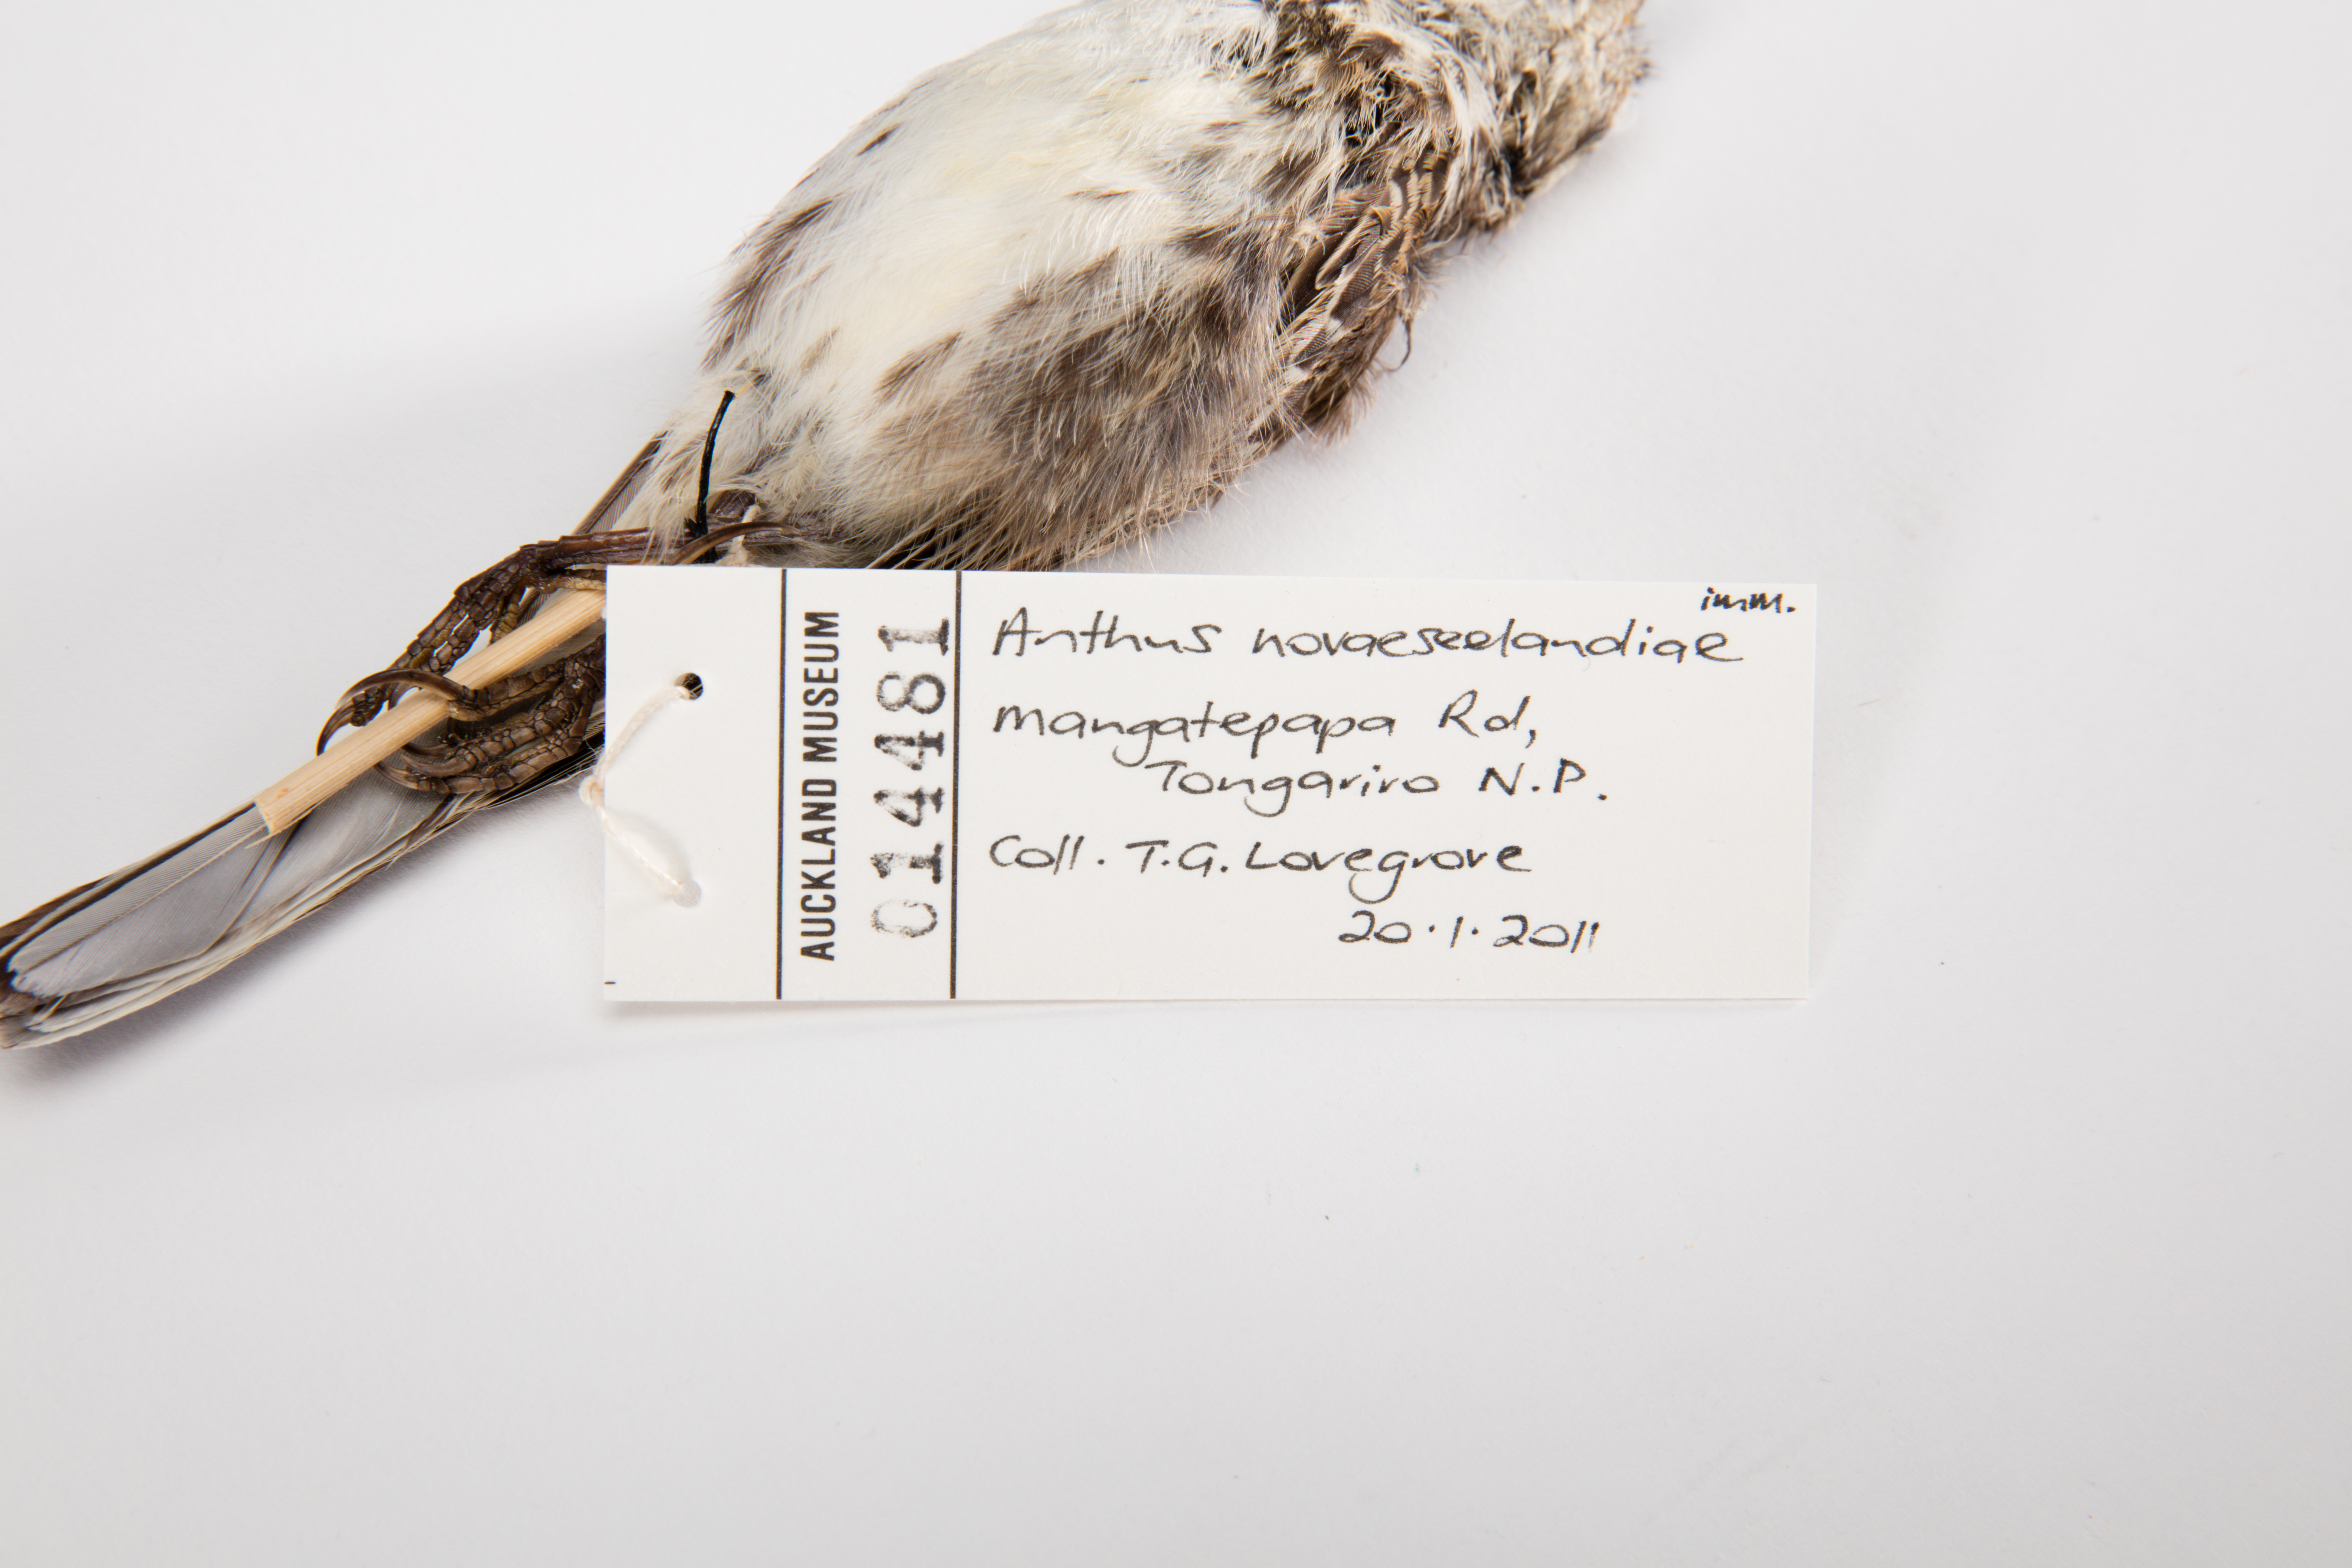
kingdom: Animalia
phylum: Chordata
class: Aves
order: Passeriformes
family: Motacillidae
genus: Anthus
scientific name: Anthus novaeseelandiae
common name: New zealand pipit
